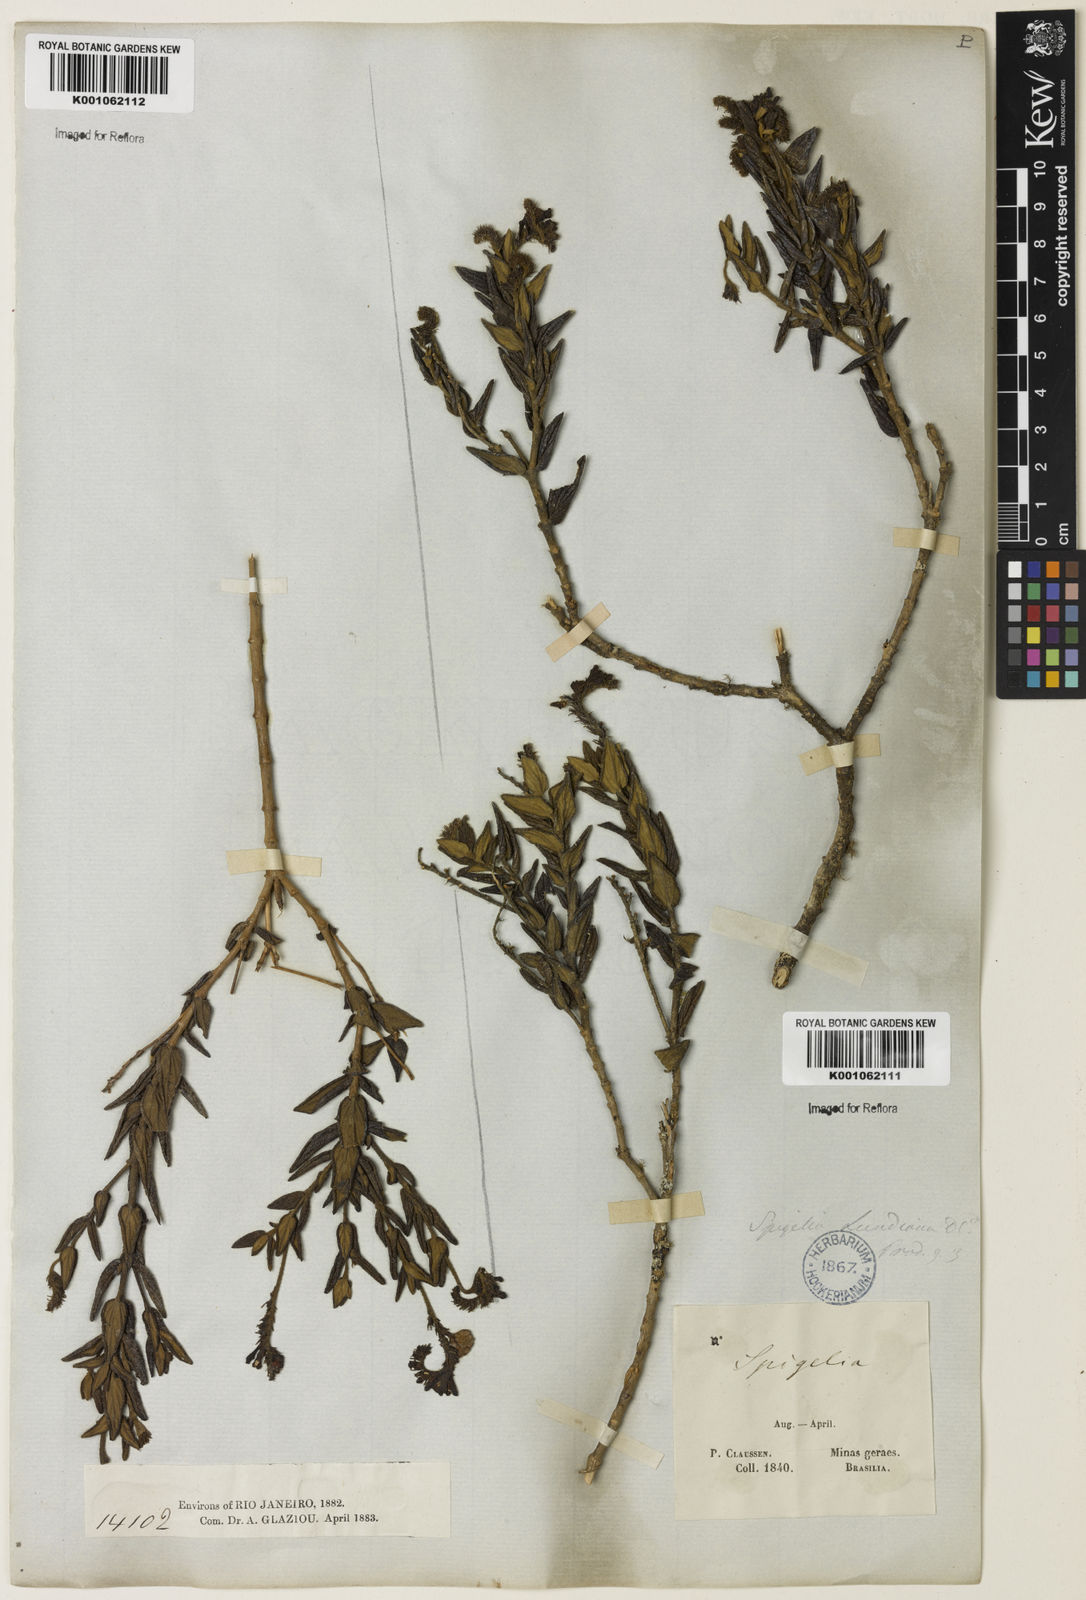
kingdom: Plantae
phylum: Tracheophyta
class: Magnoliopsida
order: Gentianales
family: Loganiaceae
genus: Spigelia
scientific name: Spigelia
